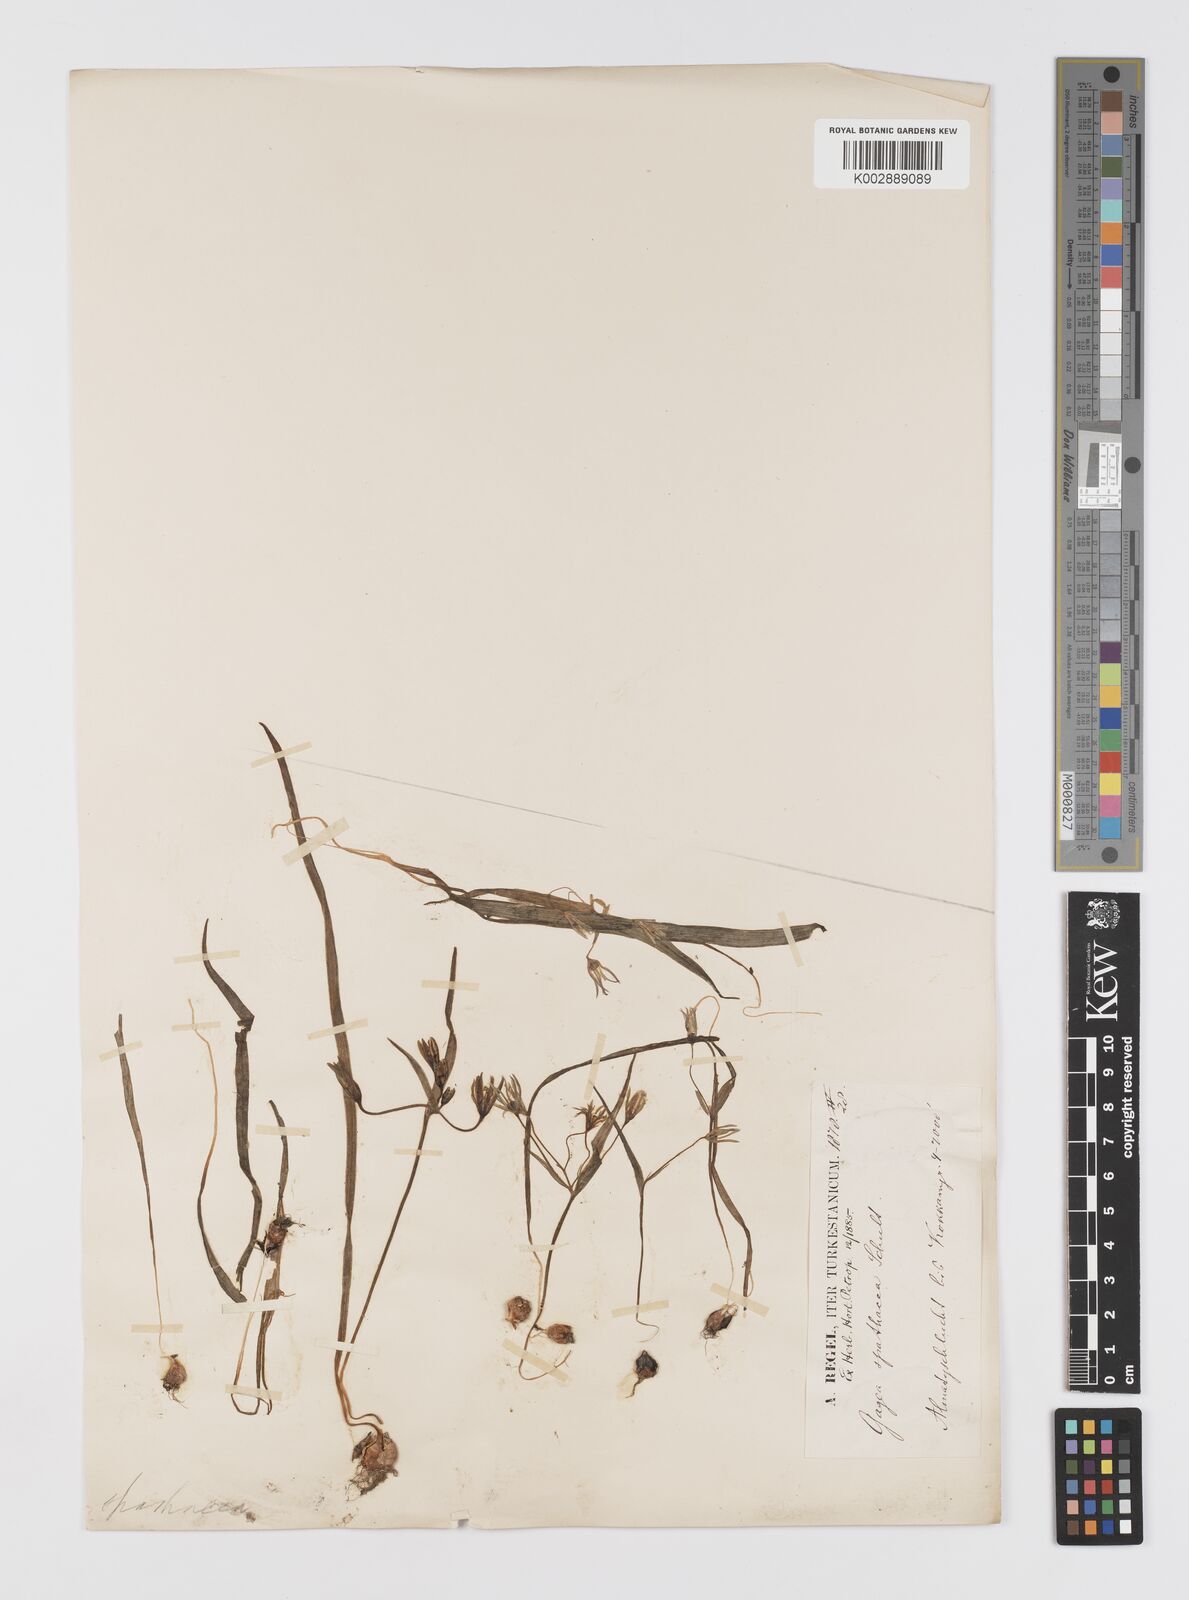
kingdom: Plantae
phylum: Tracheophyta
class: Liliopsida
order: Liliales
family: Liliaceae
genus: Gagea
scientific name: Gagea minima
